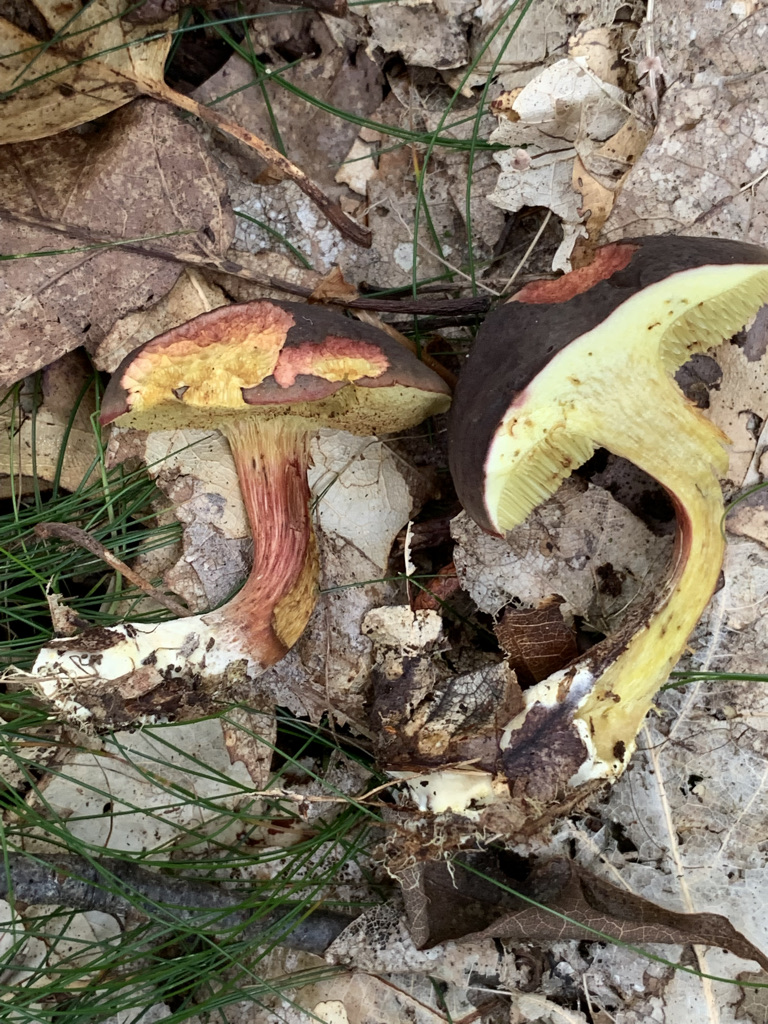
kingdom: Fungi
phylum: Basidiomycota
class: Agaricomycetes
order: Boletales
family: Boletaceae
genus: Xerocomellus
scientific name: Xerocomellus pruinatus
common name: dugget rørhat
